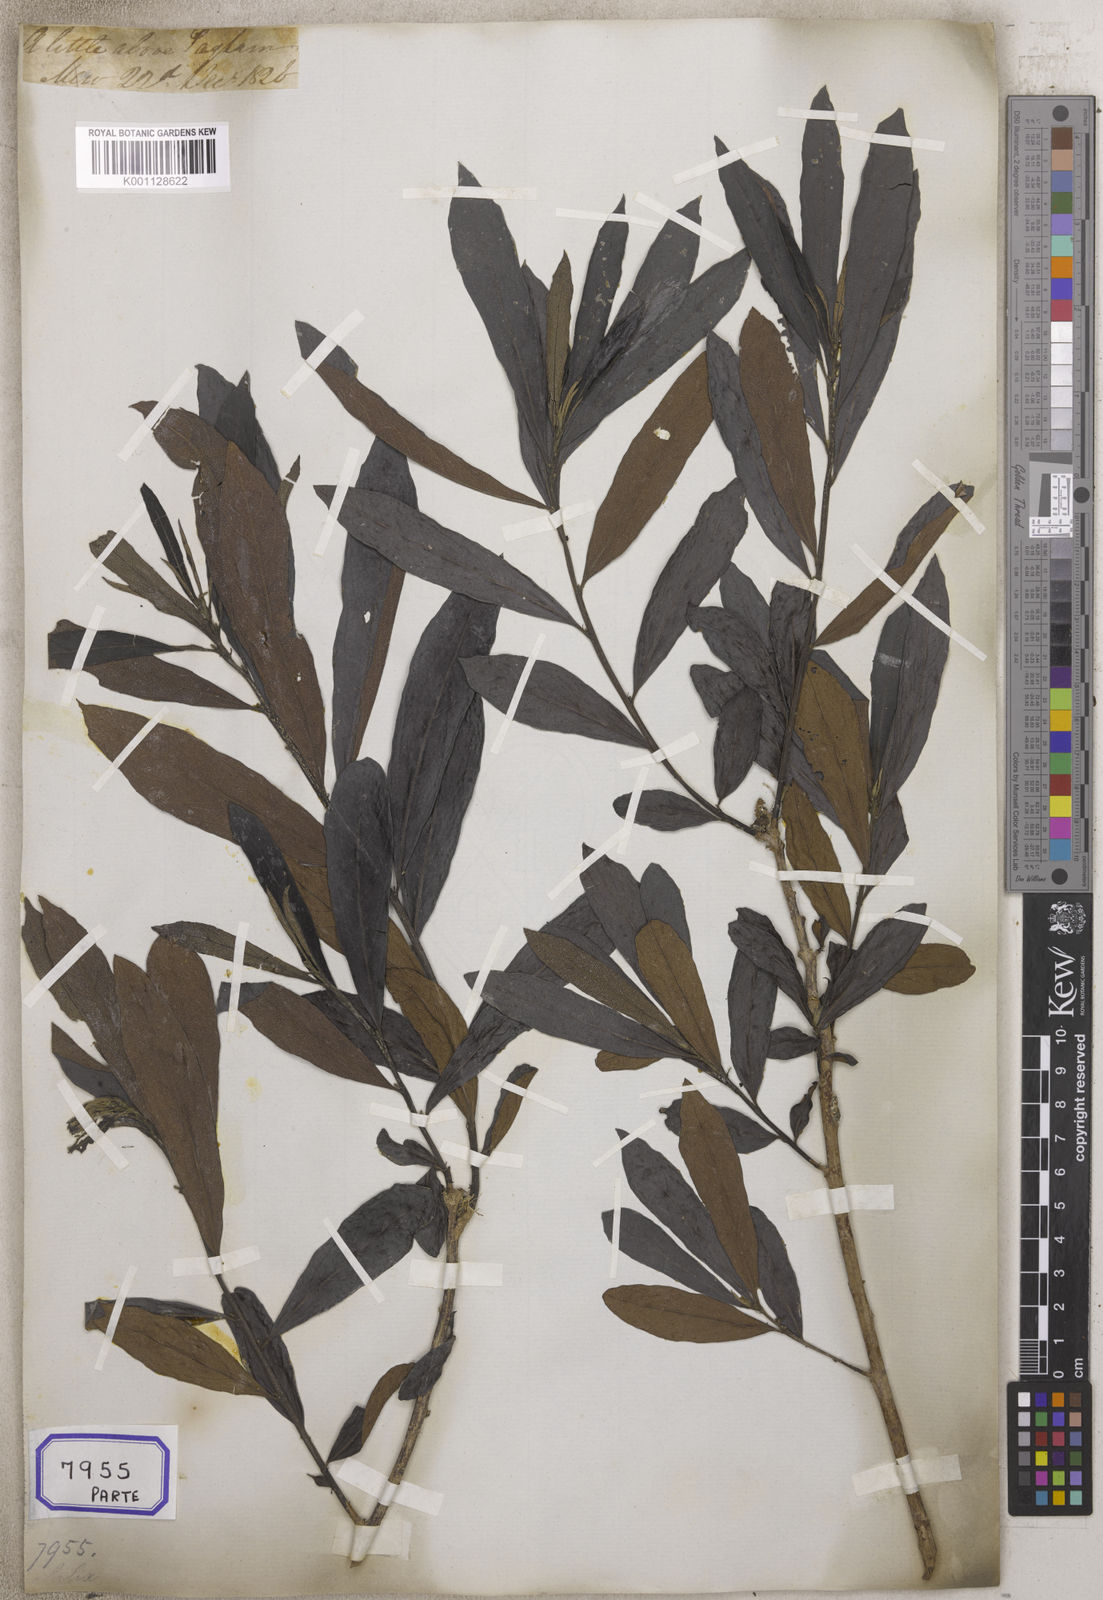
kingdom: Plantae
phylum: Tracheophyta
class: Magnoliopsida
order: Malpighiales
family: Euphorbiaceae
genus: Homonoia
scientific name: Homonoia
